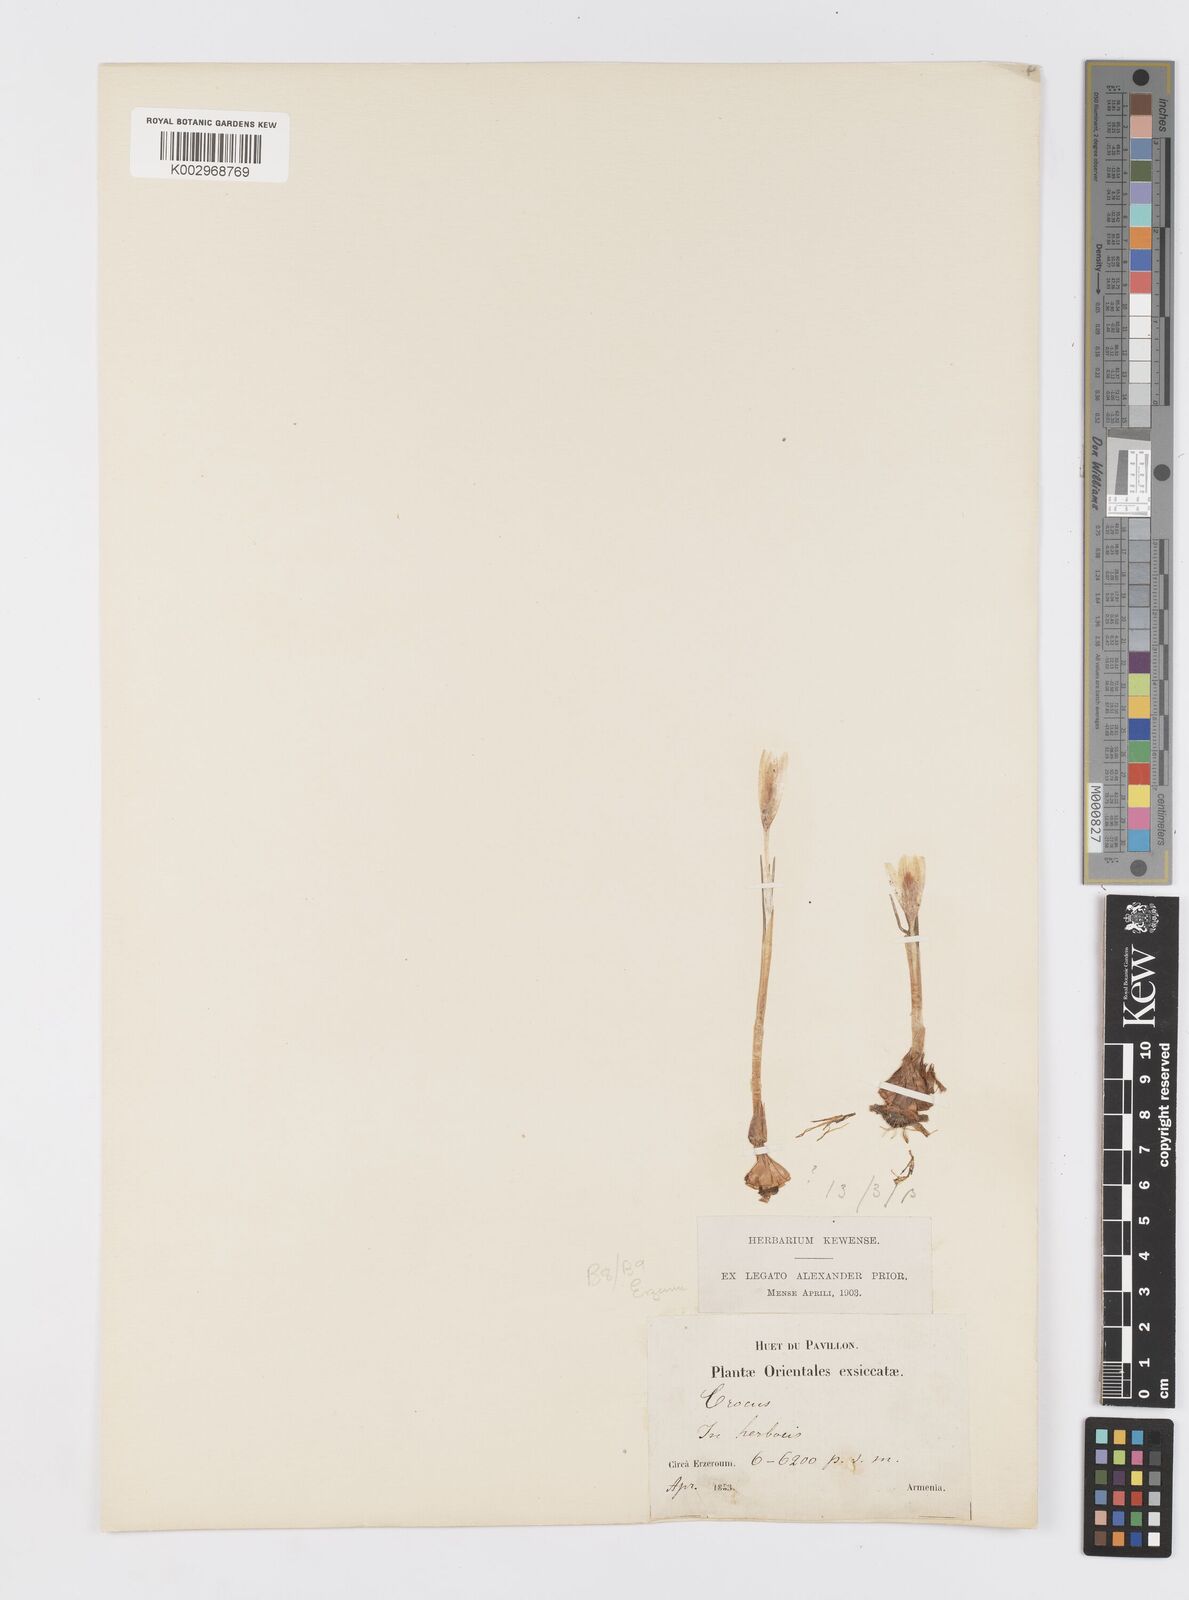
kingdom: Plantae
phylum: Tracheophyta
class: Liliopsida
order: Asparagales
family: Iridaceae
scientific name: Iridaceae
